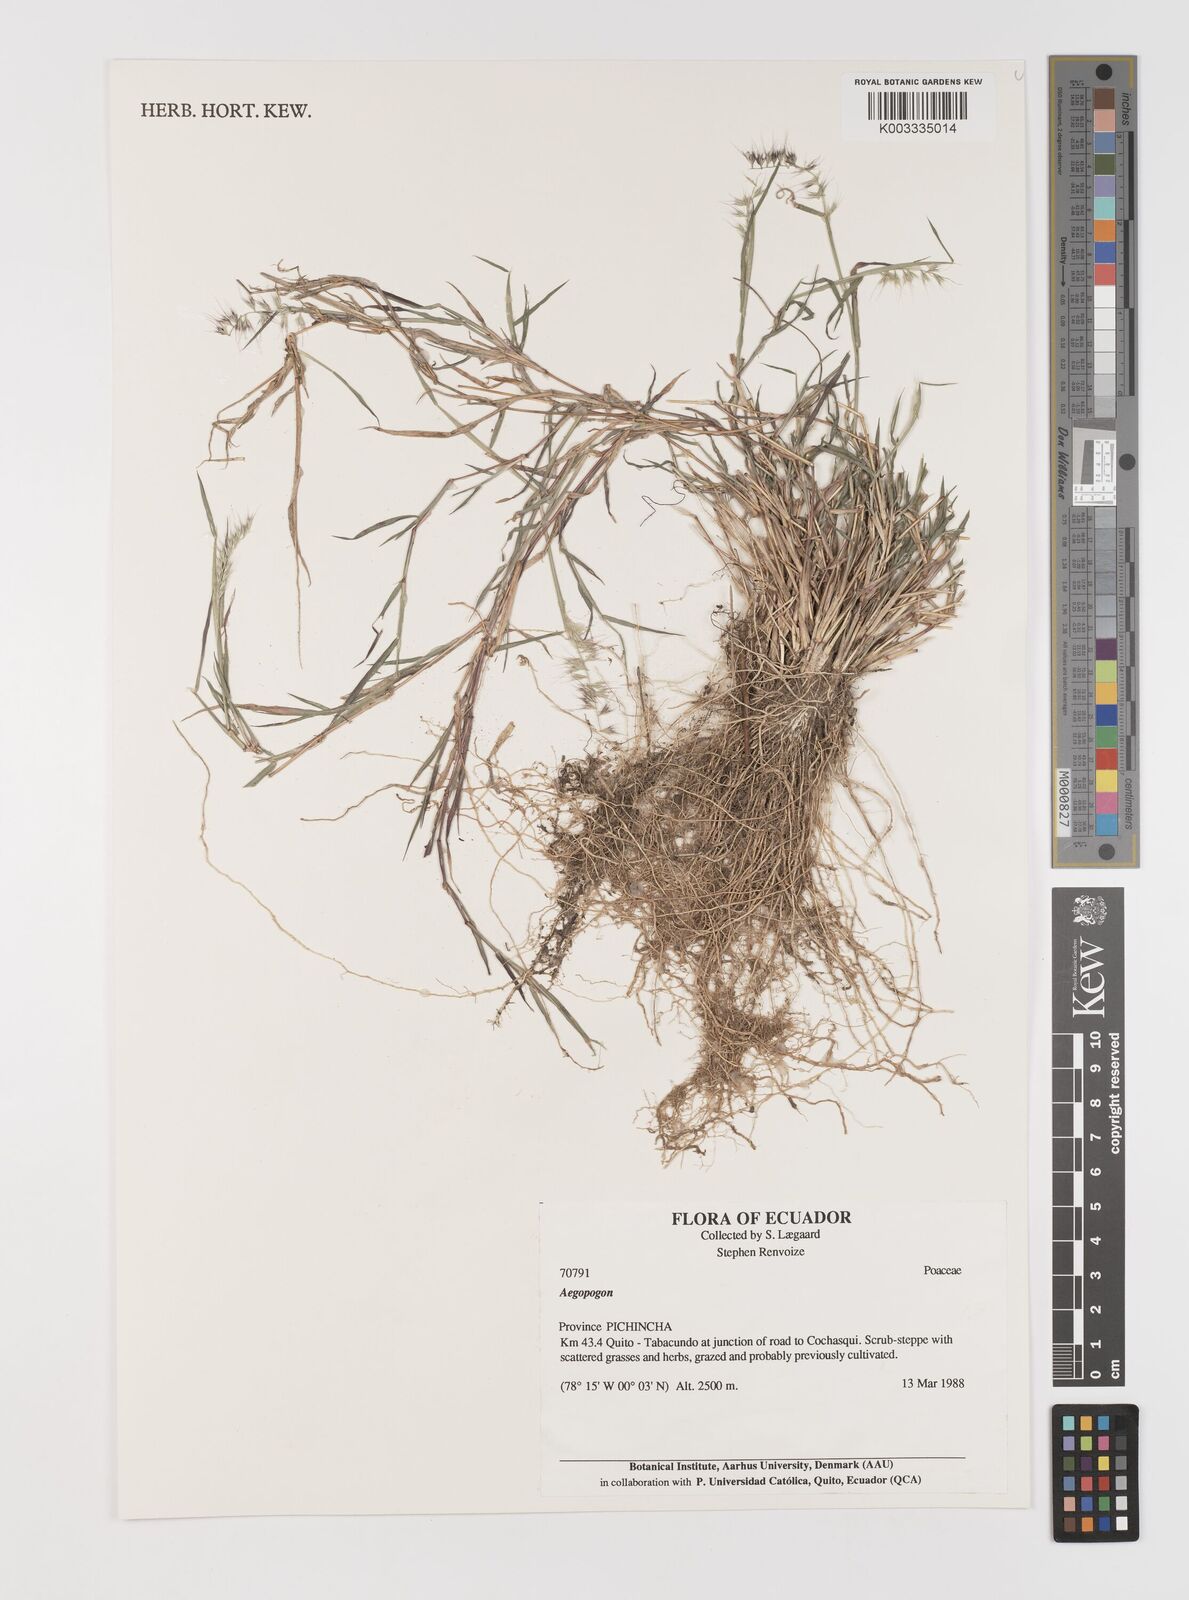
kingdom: Plantae
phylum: Tracheophyta
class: Liliopsida
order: Poales
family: Poaceae
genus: Muhlenbergia
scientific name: Muhlenbergia cenchroides
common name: Relaxgrass
